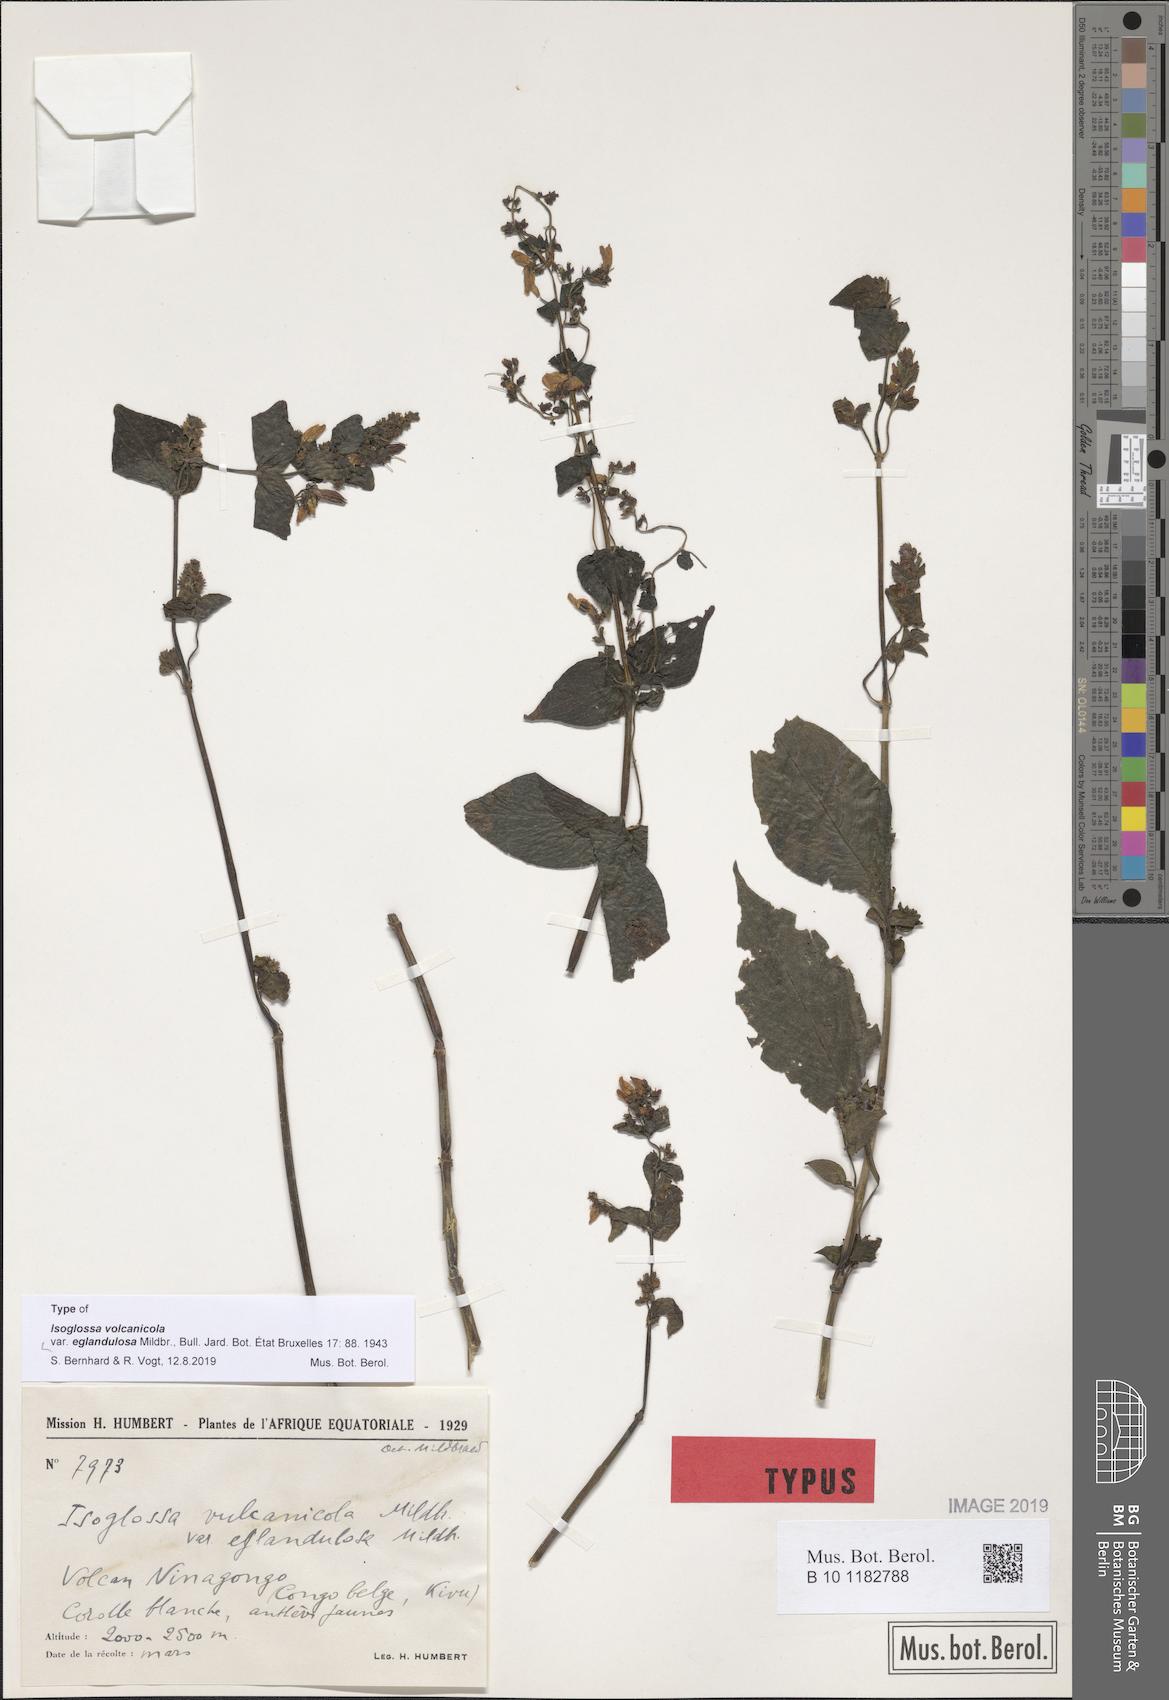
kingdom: Plantae
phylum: Tracheophyta
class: Magnoliopsida
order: Lamiales
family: Acanthaceae
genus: Isoglossa
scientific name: Isoglossa vulcanicola
